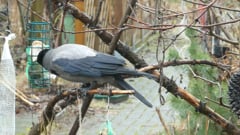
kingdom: Animalia
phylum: Chordata
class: Aves
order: Passeriformes
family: Corvidae
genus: Corvus
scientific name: Corvus cornix
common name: Hooded crow
